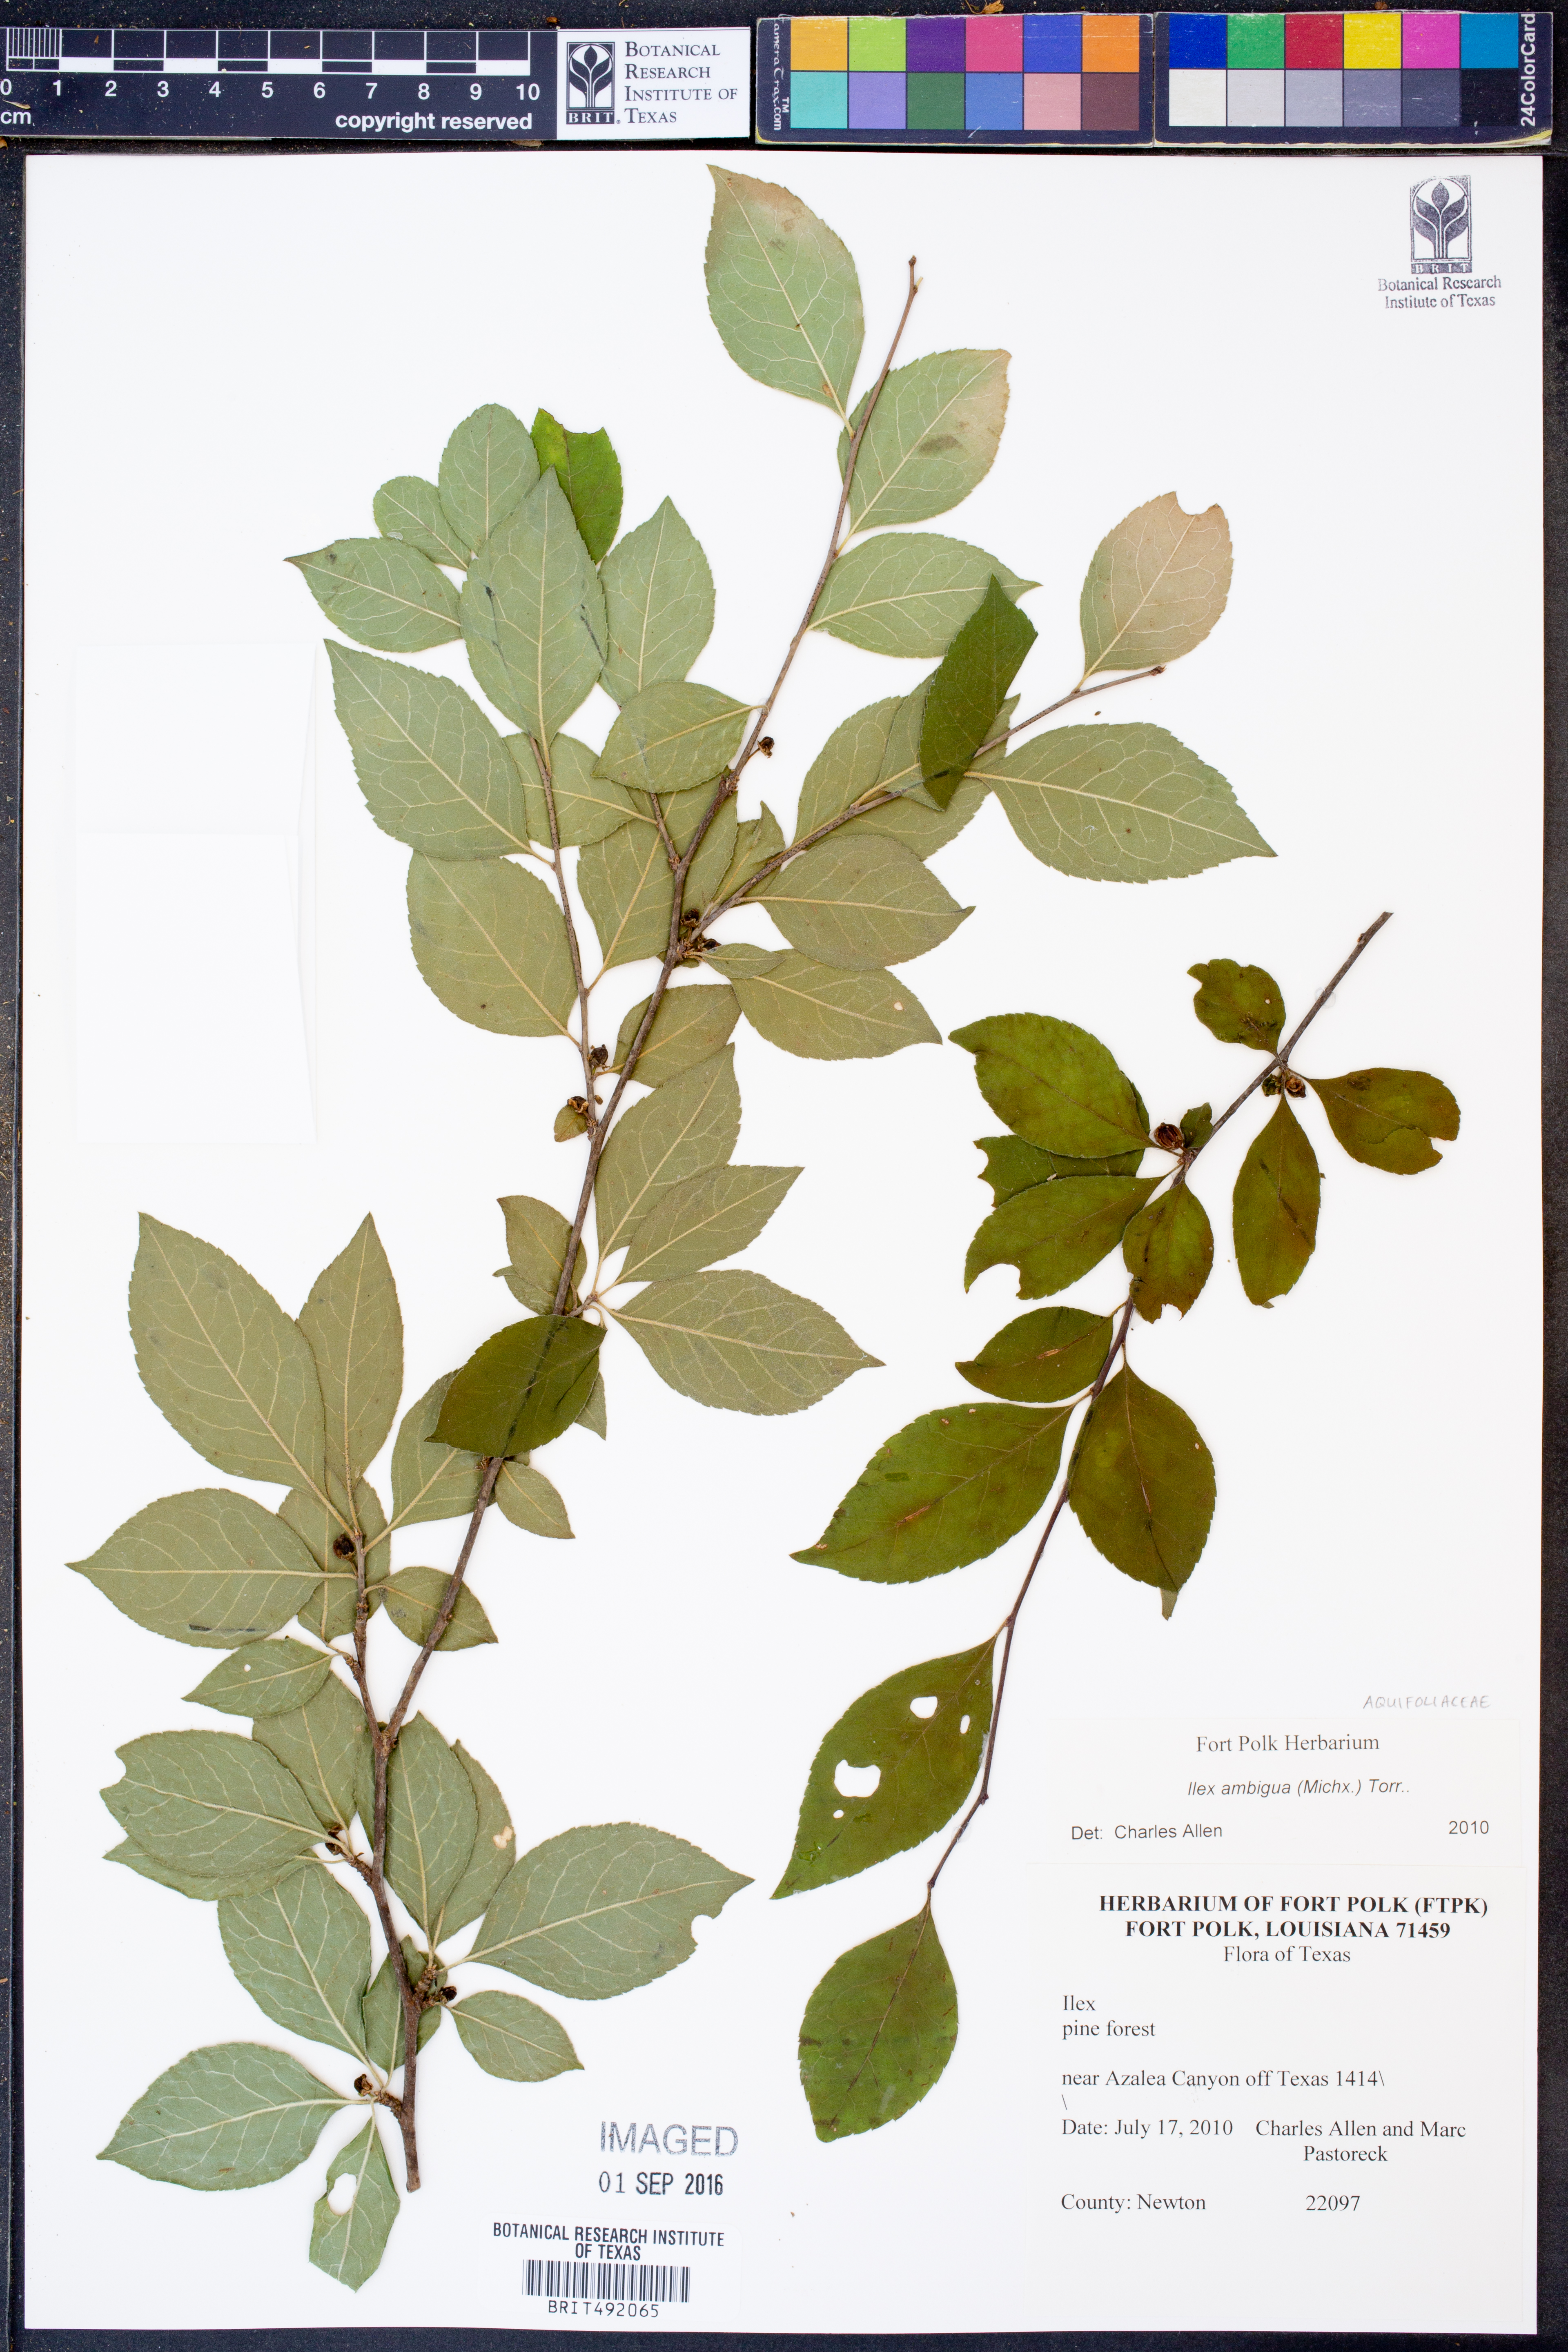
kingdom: Plantae
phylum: Tracheophyta
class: Magnoliopsida
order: Aquifoliales
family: Aquifoliaceae
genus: Ilex
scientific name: Ilex ambigua
